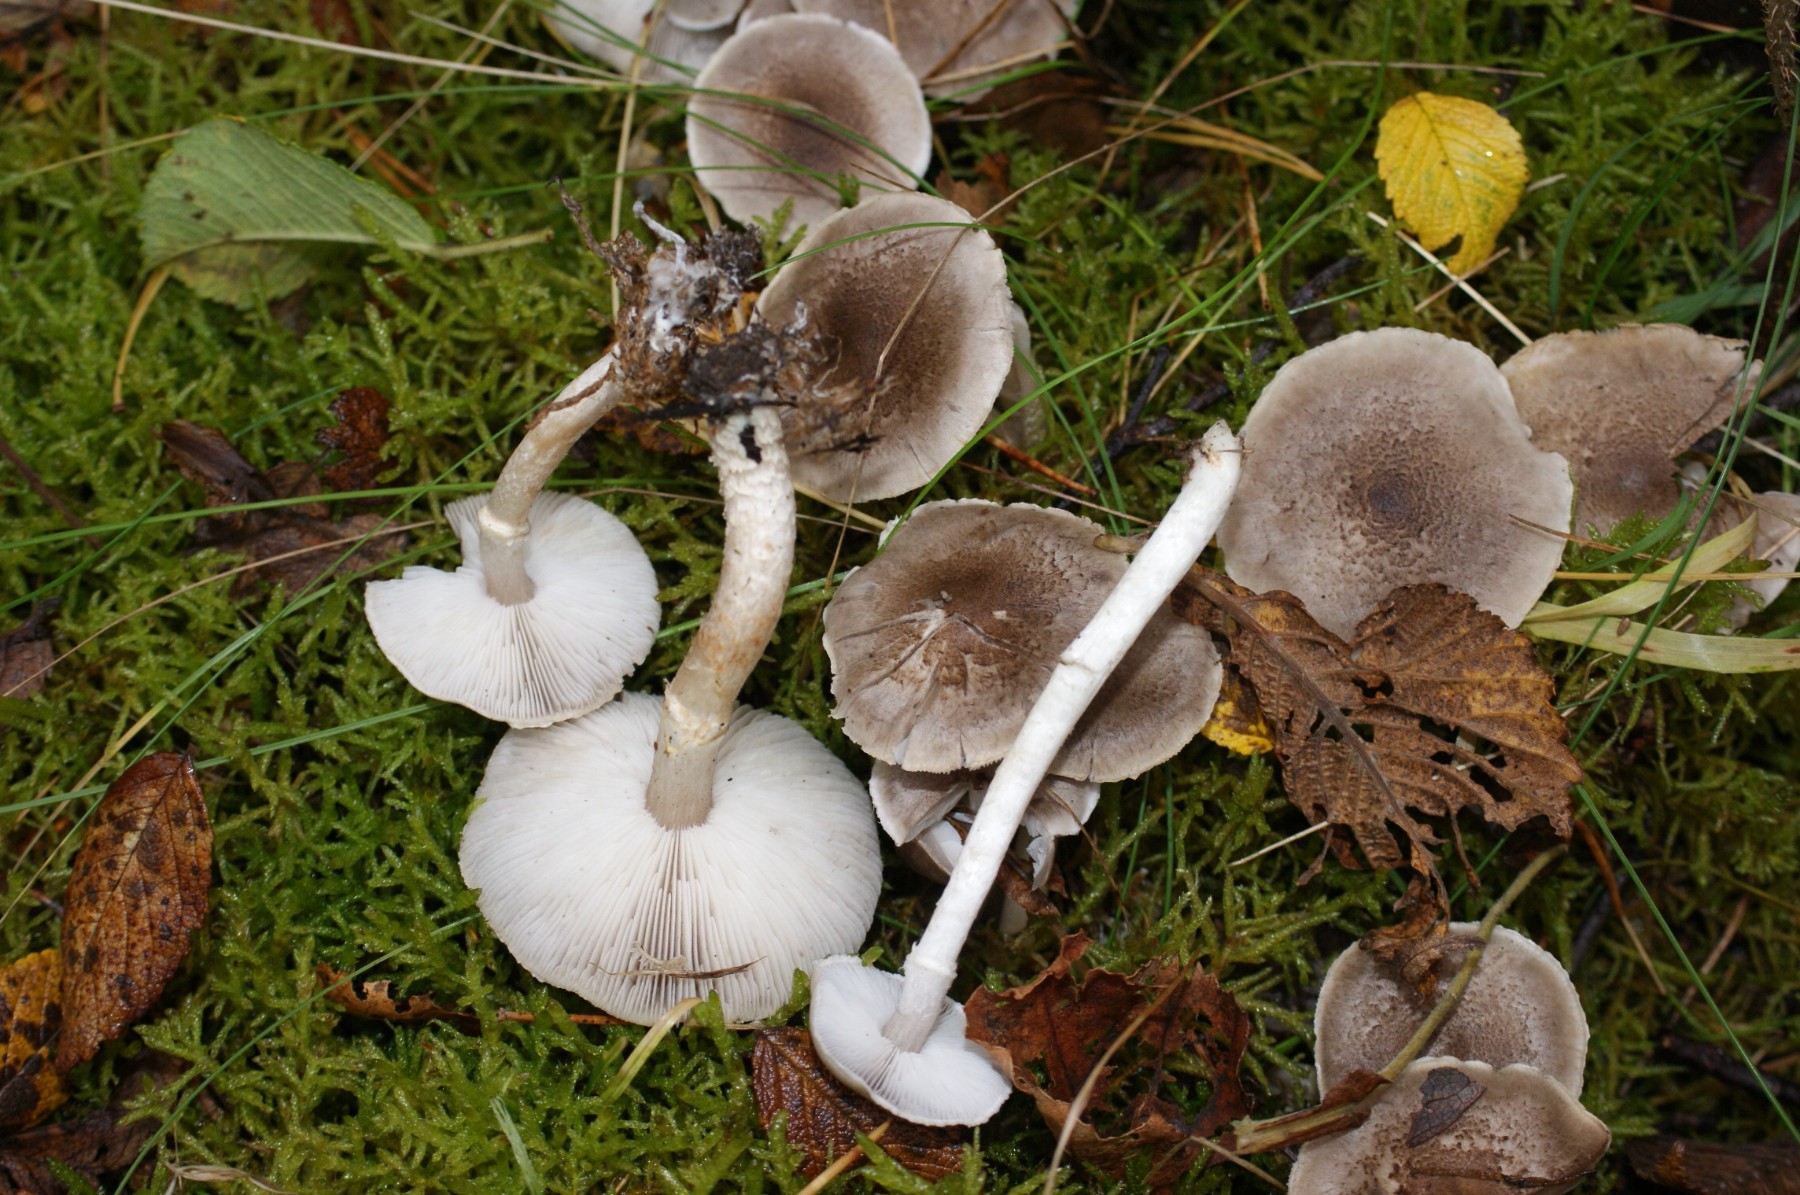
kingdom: Fungi
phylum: Basidiomycota
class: Agaricomycetes
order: Agaricales
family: Tricholomataceae
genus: Tricholoma
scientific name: Tricholoma cingulatum
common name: ring-ridderhat
